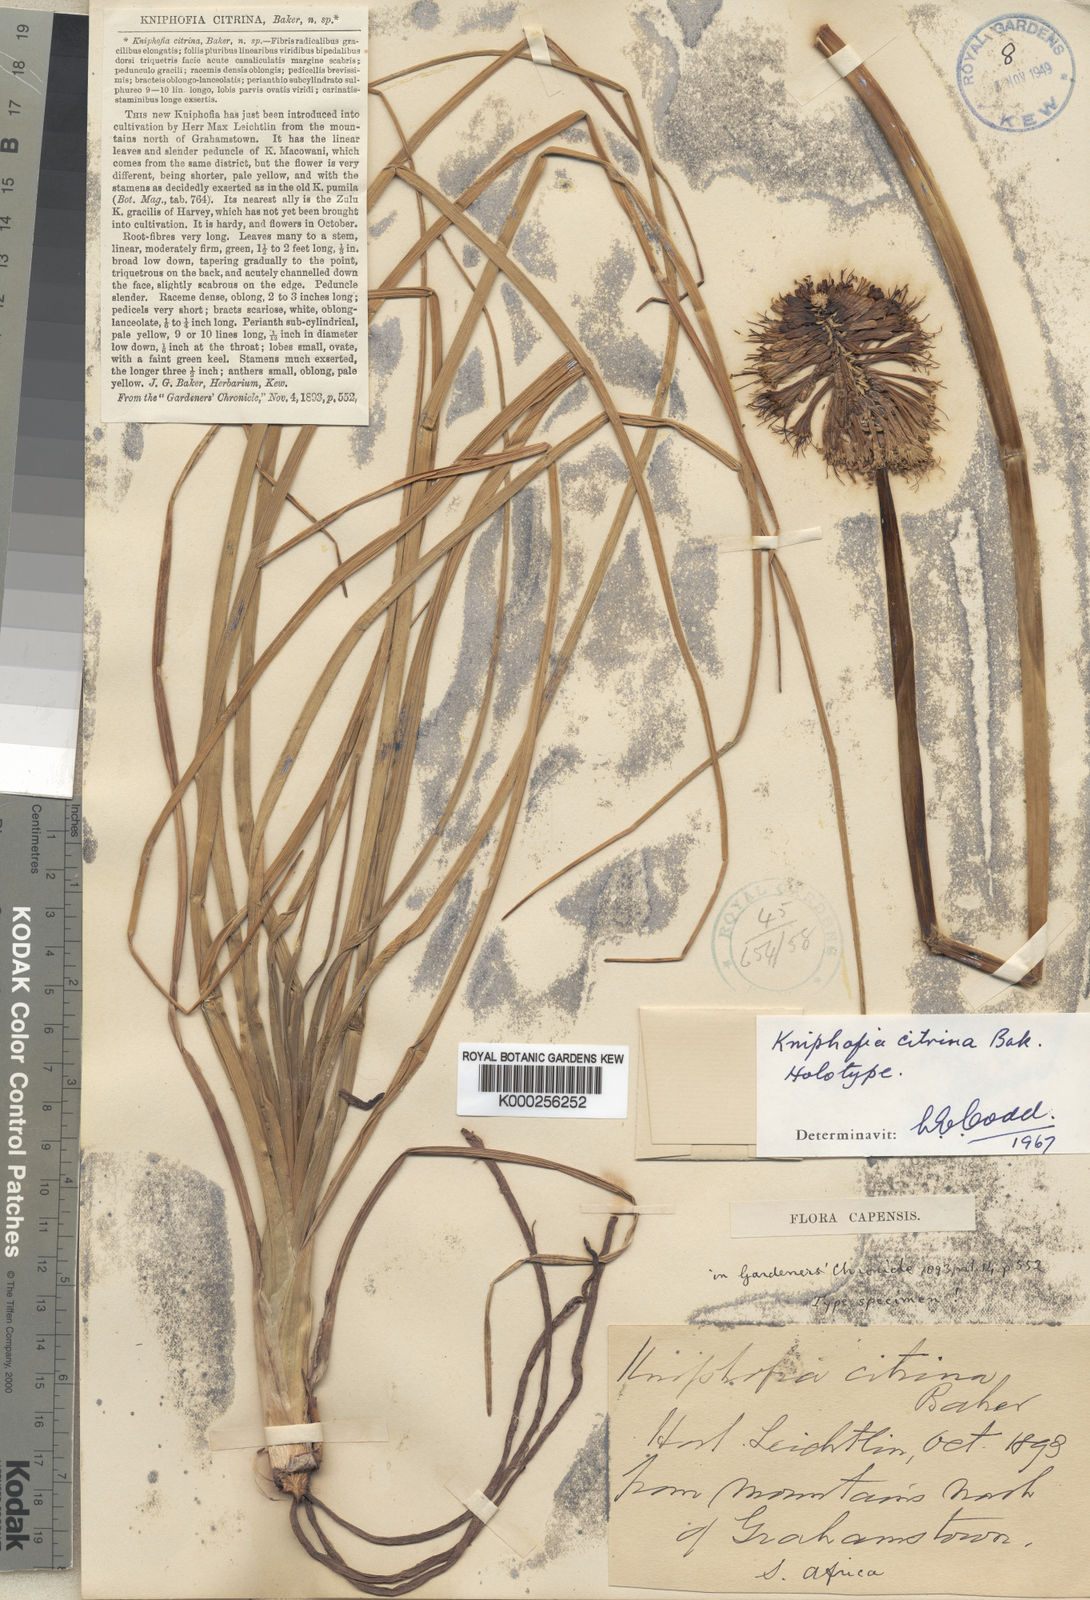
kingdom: Plantae
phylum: Tracheophyta
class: Liliopsida
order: Asparagales
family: Asphodelaceae
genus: Kniphofia
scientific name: Kniphofia citrina
